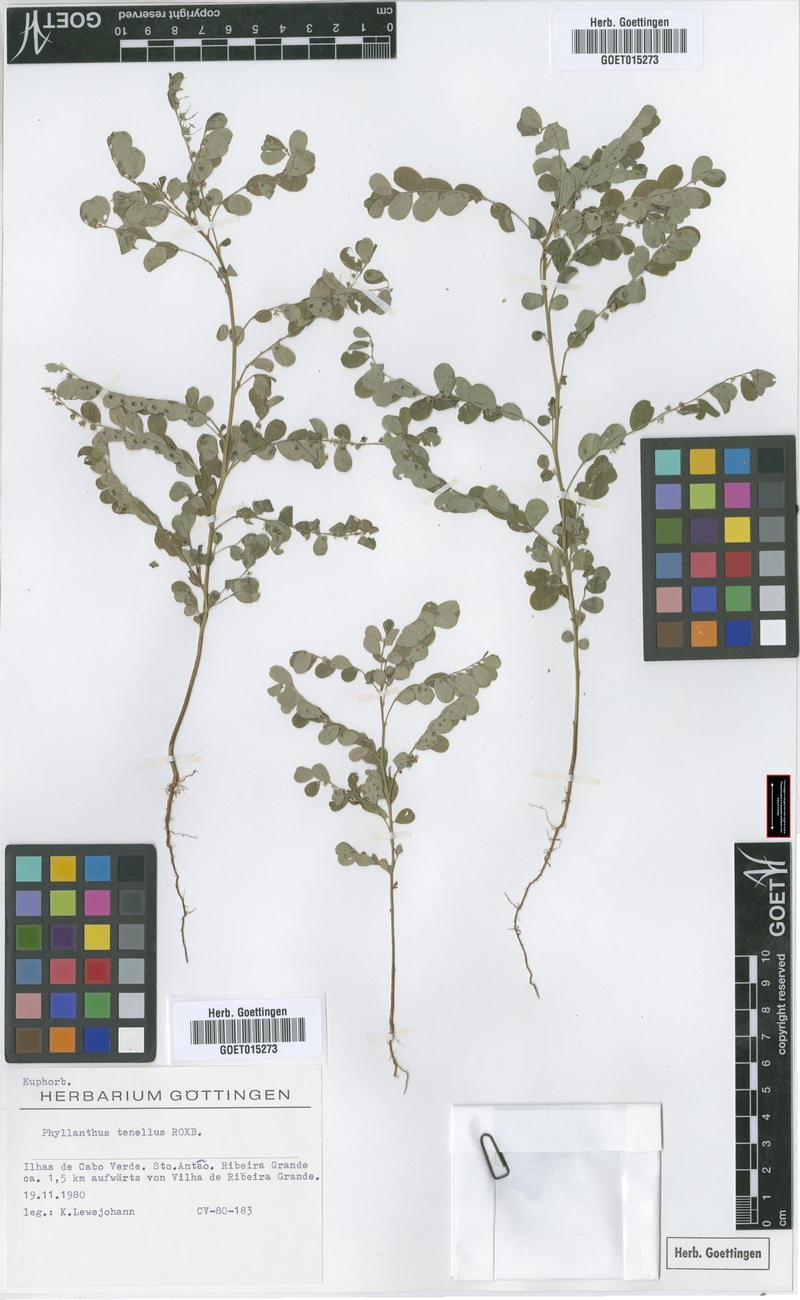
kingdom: Plantae
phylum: Tracheophyta
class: Magnoliopsida
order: Malpighiales
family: Phyllanthaceae
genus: Phyllanthus
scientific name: Phyllanthus tenellus
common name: Mascarene island leaf-flower
